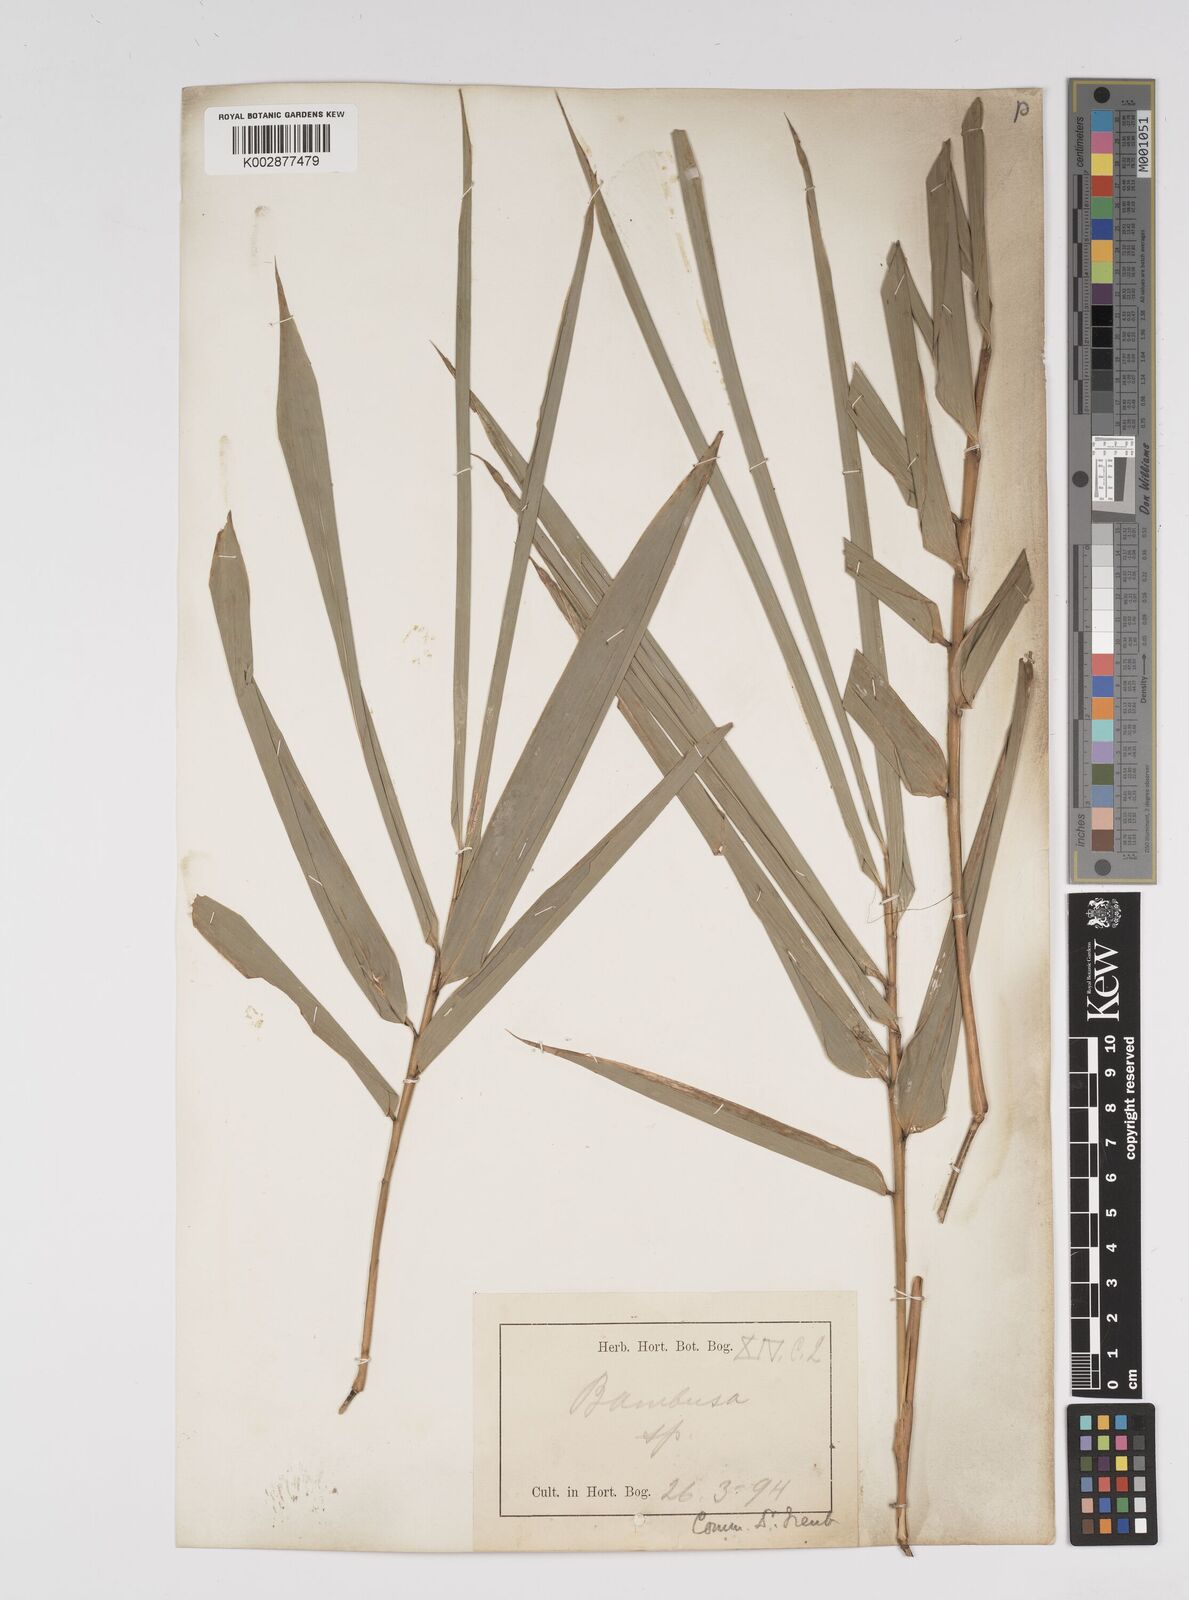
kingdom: Plantae
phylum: Tracheophyta
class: Liliopsida
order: Poales
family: Poaceae
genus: Bambusa
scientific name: Bambusa
